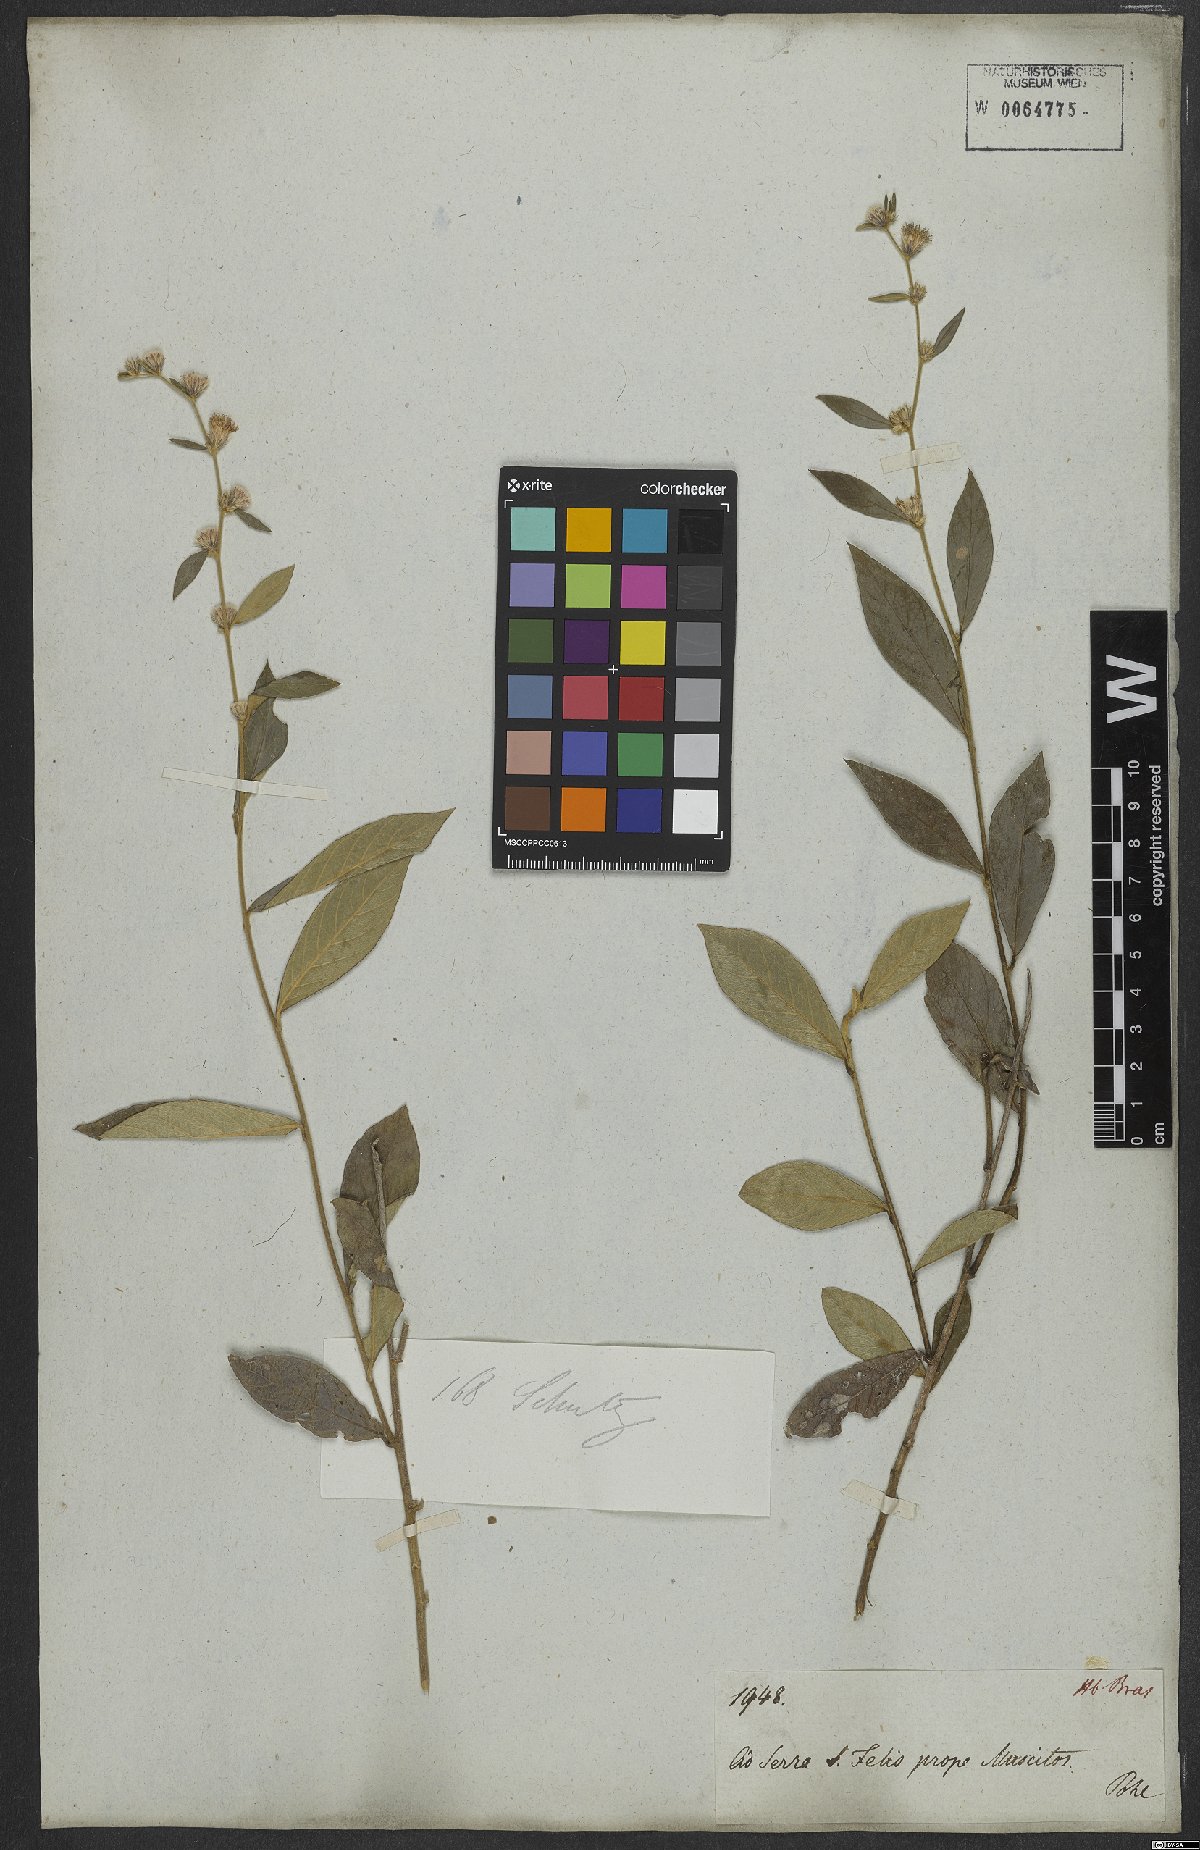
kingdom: Plantae
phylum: Tracheophyta
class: Magnoliopsida
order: Asterales
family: Asteraceae
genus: Lepidaploa
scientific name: Lepidaploa subsquarrosa
